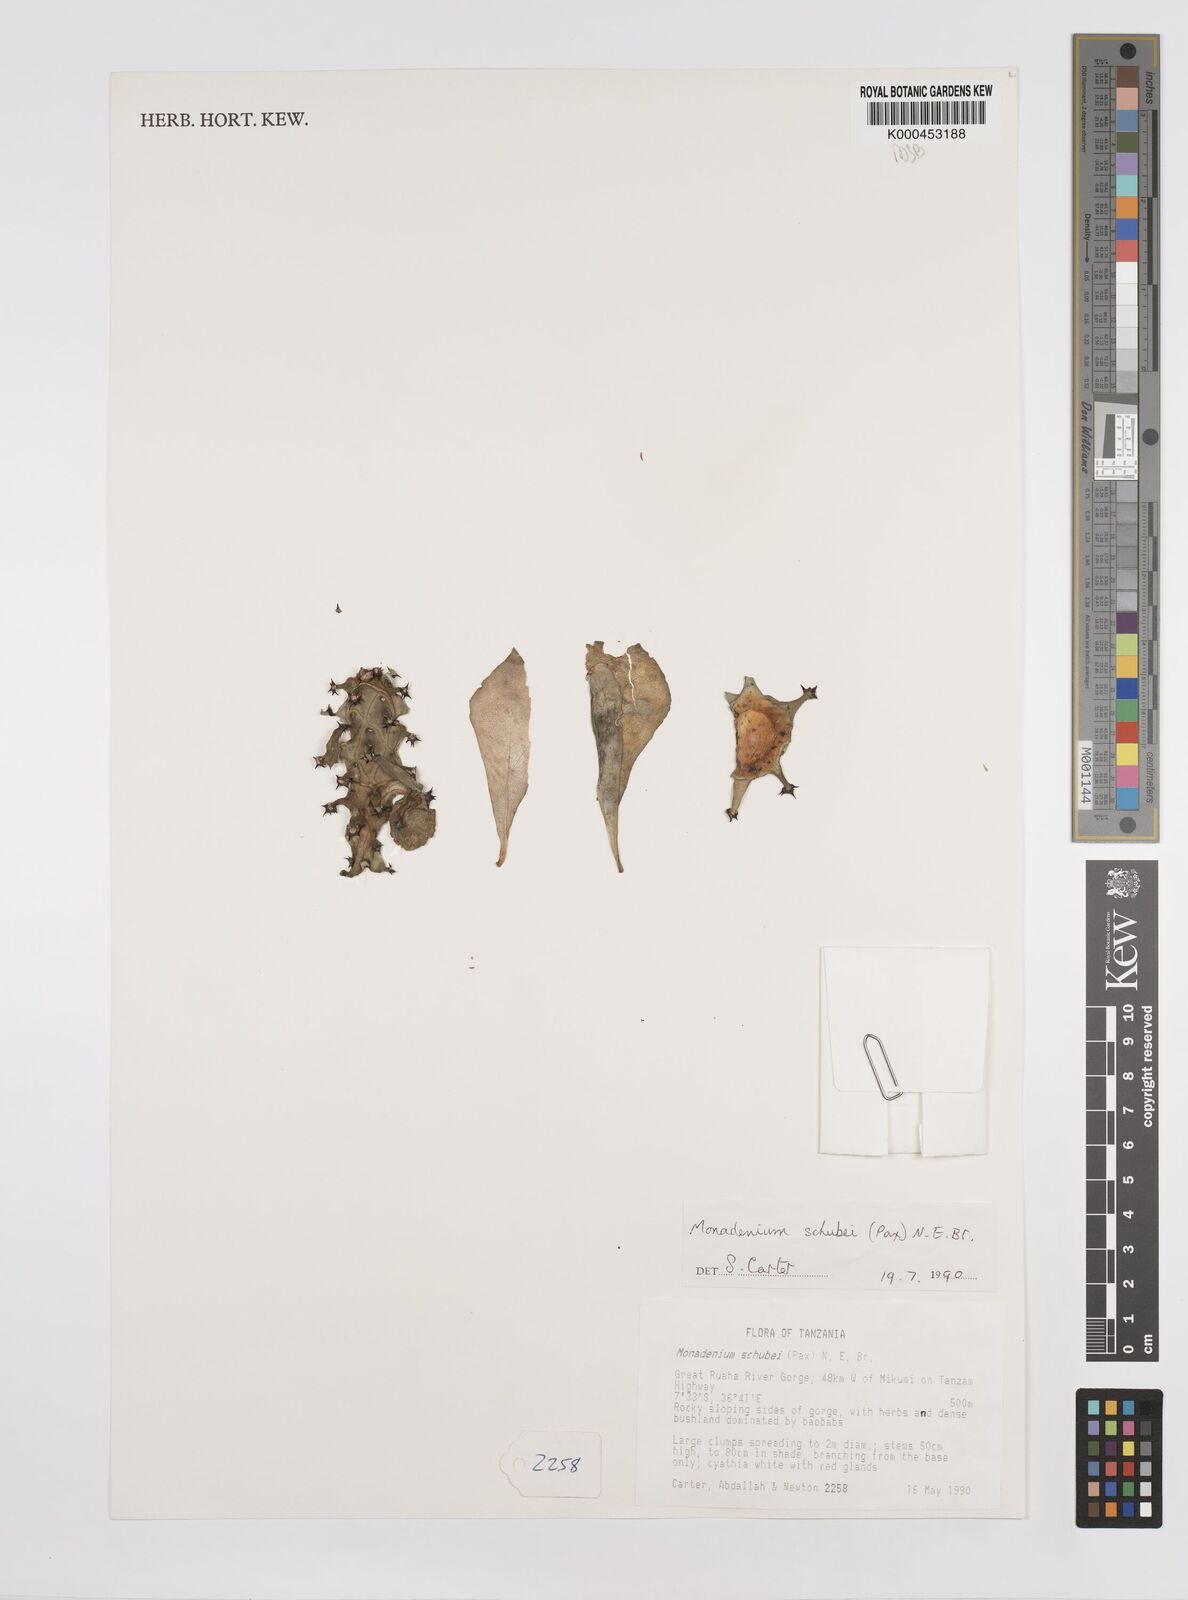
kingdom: Plantae
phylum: Tracheophyta
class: Magnoliopsida
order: Malpighiales
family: Euphorbiaceae
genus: Euphorbia
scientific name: Euphorbia schubei
